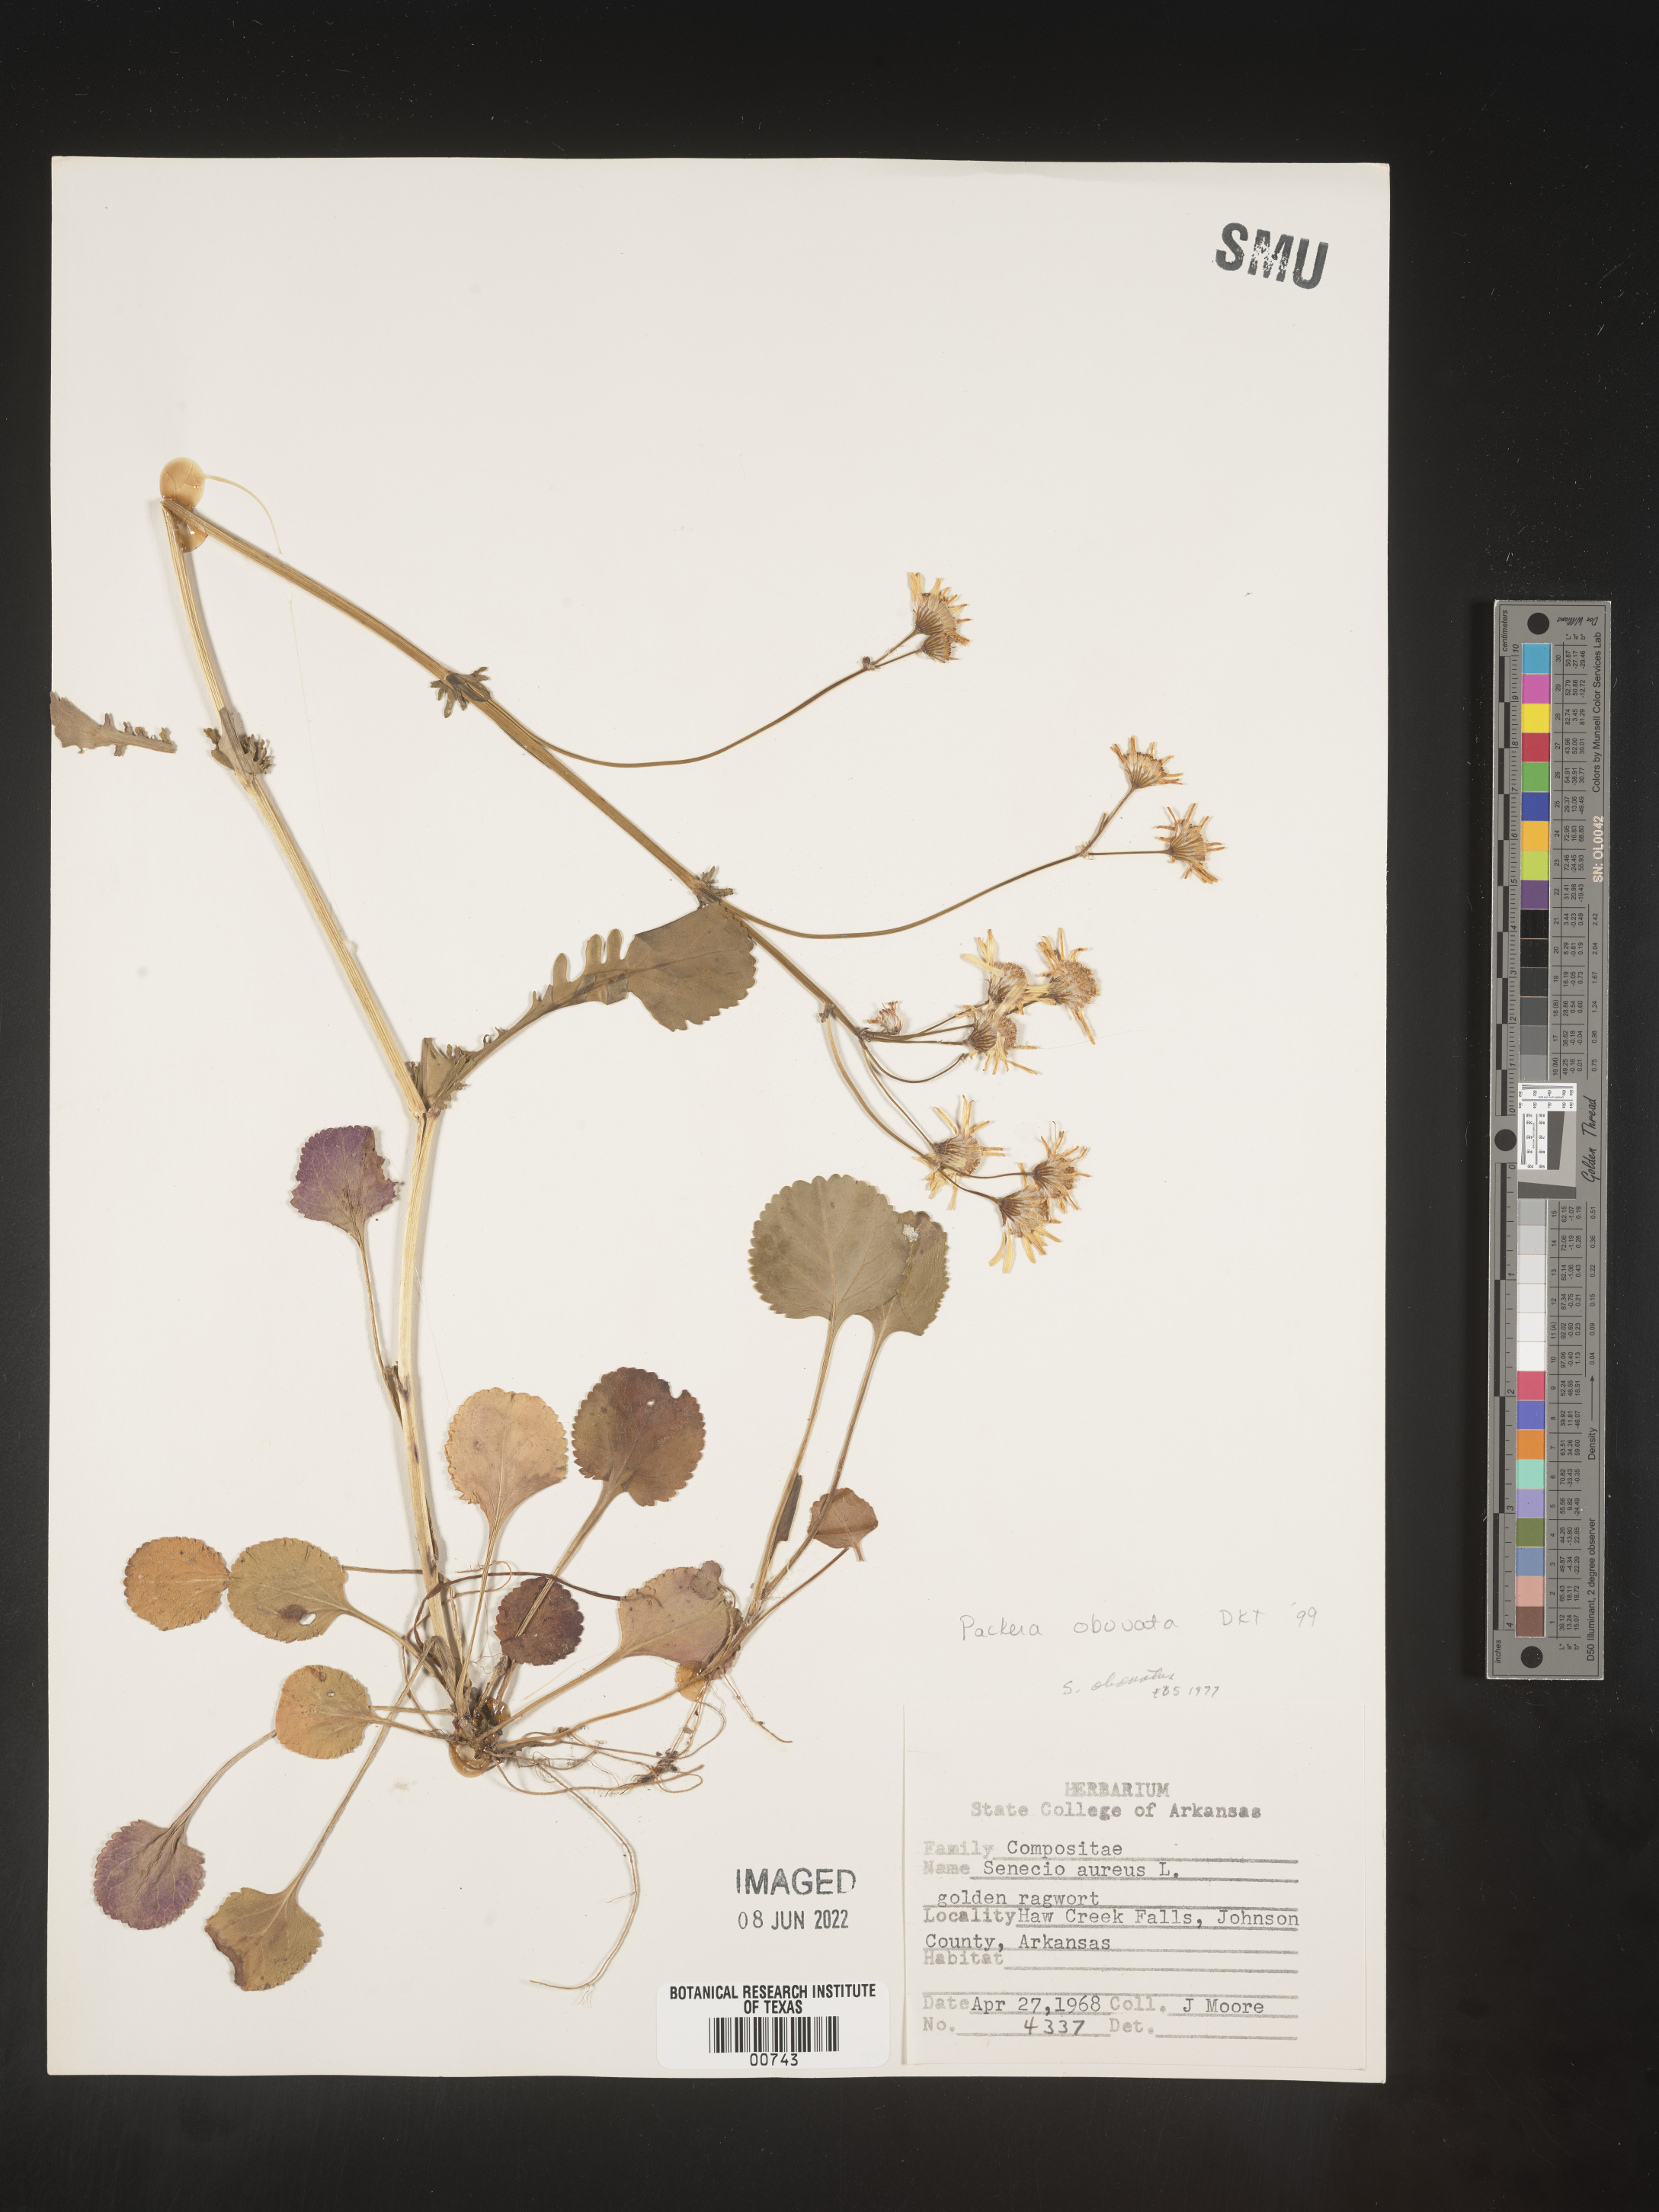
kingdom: Plantae
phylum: Tracheophyta
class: Magnoliopsida
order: Asterales
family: Asteraceae
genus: Packera
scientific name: Packera obovata
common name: Round-leaf ragwort
